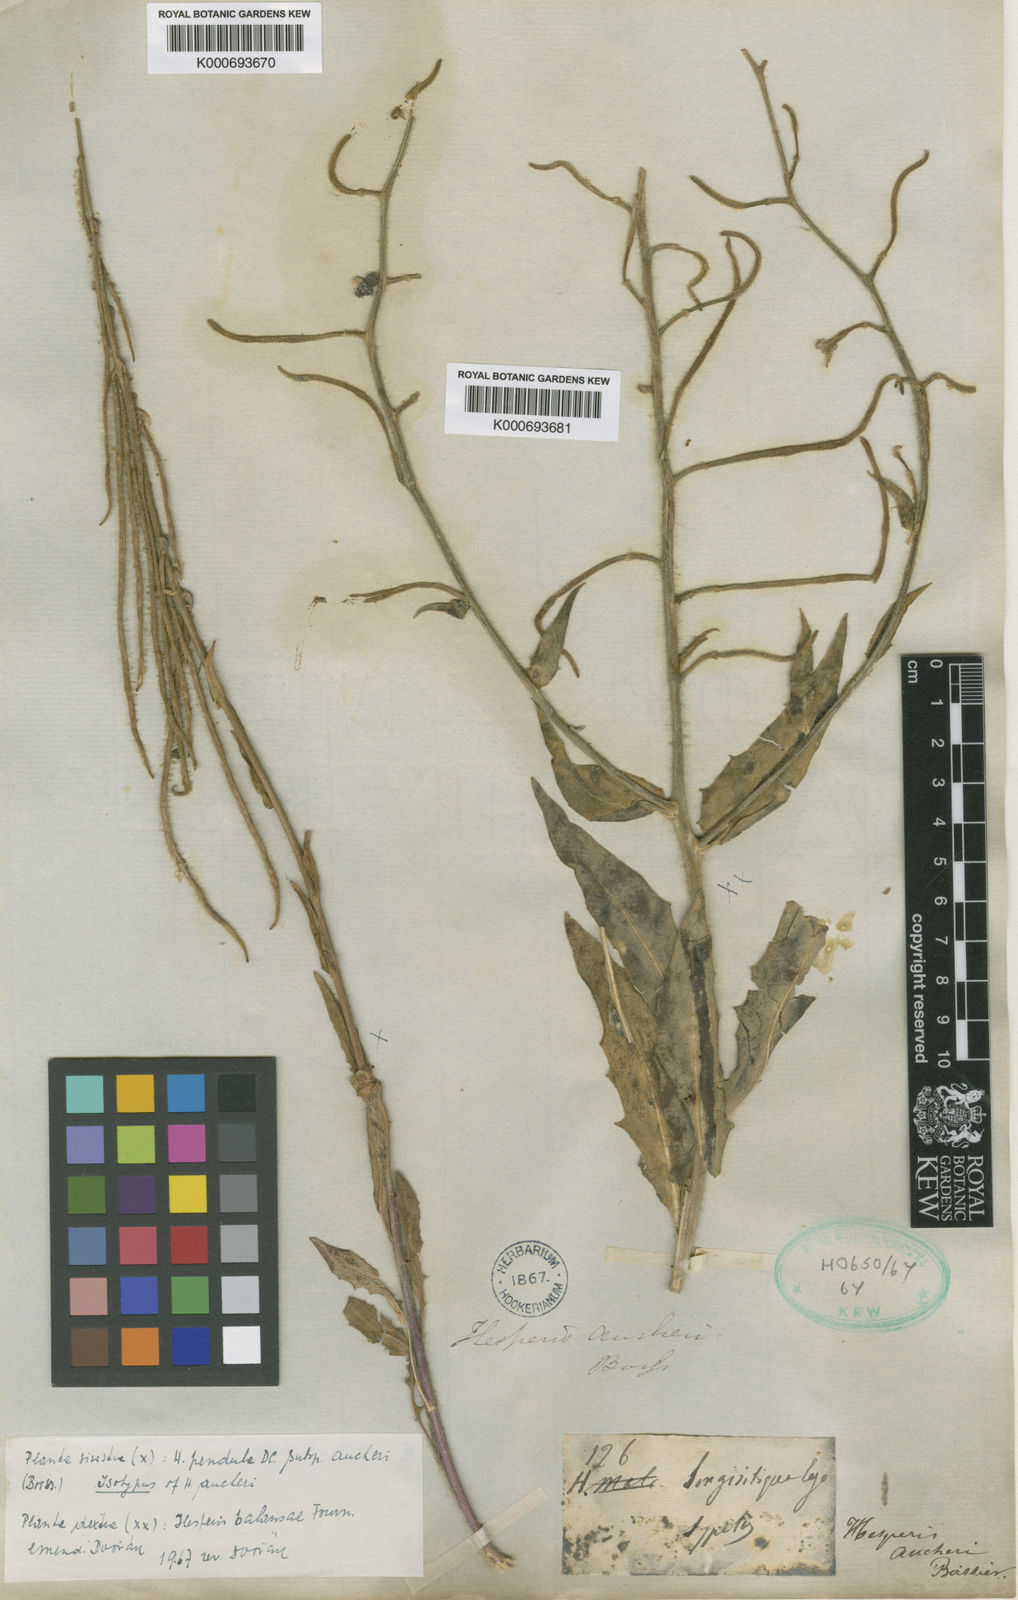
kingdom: Plantae
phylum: Tracheophyta
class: Magnoliopsida
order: Brassicales
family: Brassicaceae
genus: Hesperis
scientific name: Hesperis pendula
